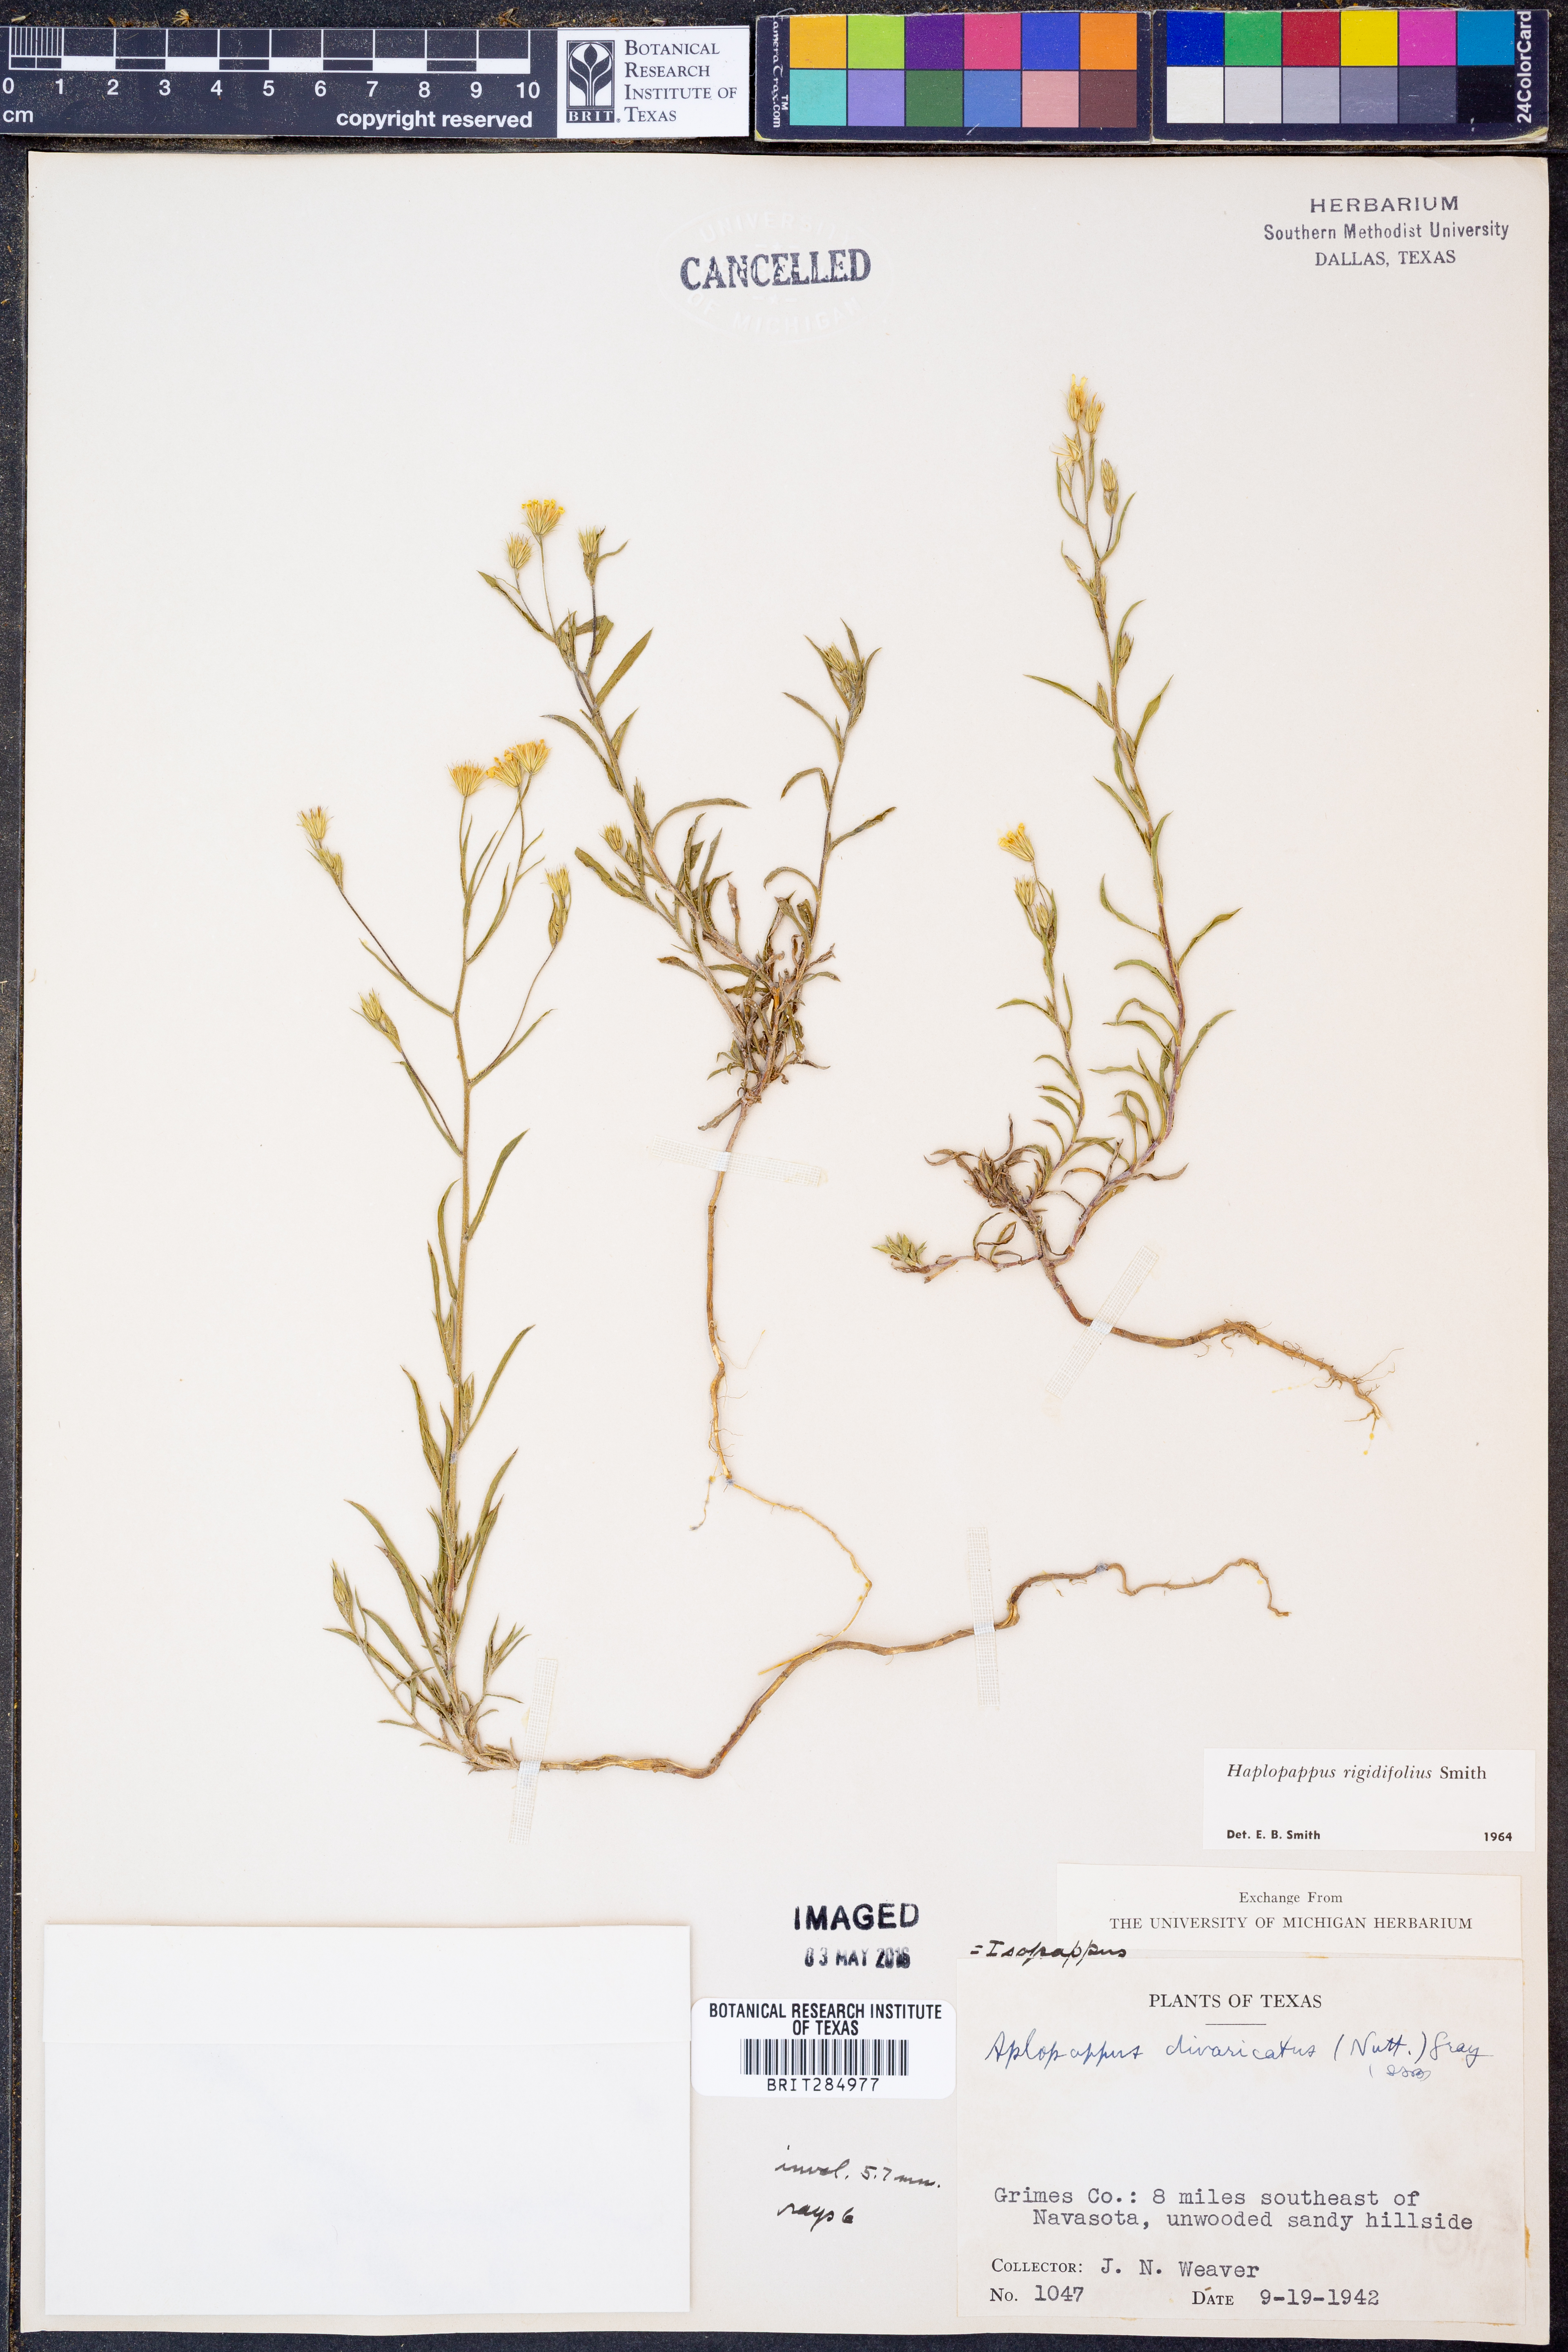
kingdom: Plantae
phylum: Tracheophyta
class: Magnoliopsida
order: Asterales
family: Asteraceae
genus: Croptilon
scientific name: Croptilon rigidifolium
